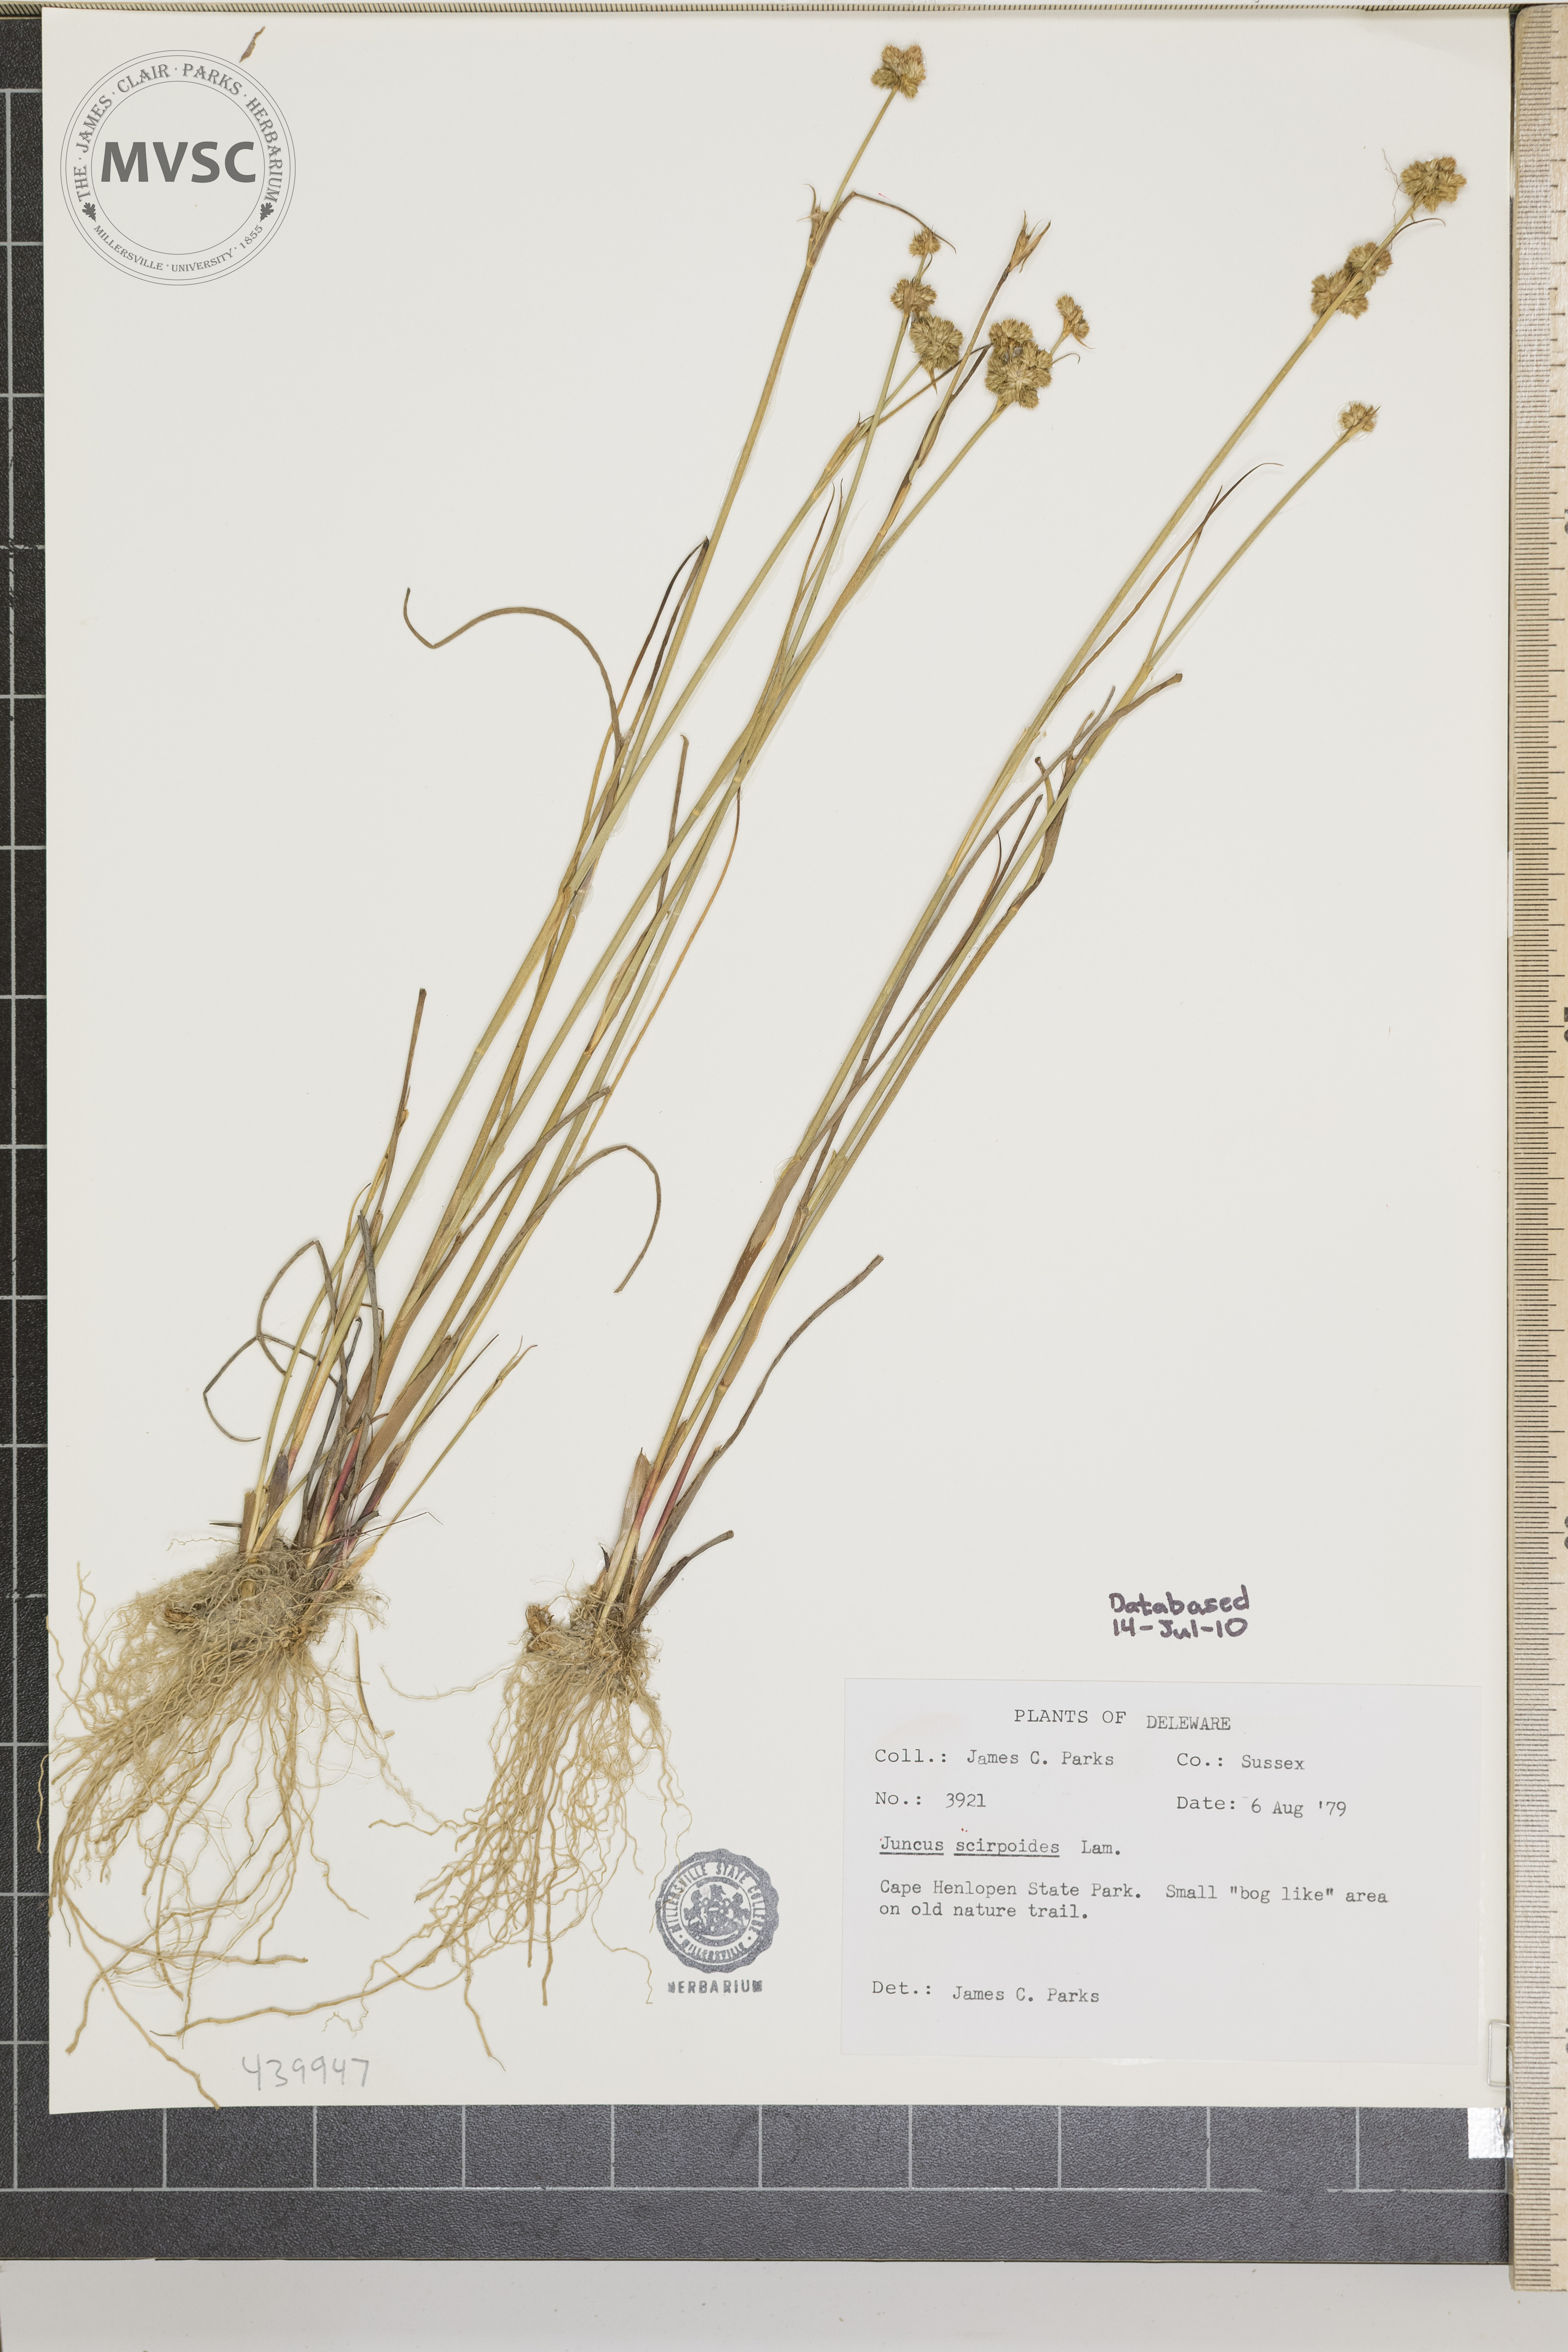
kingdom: Plantae
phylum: Tracheophyta
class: Liliopsida
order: Poales
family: Juncaceae
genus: Juncus
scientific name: Juncus scirpoides
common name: Needlepod rush
